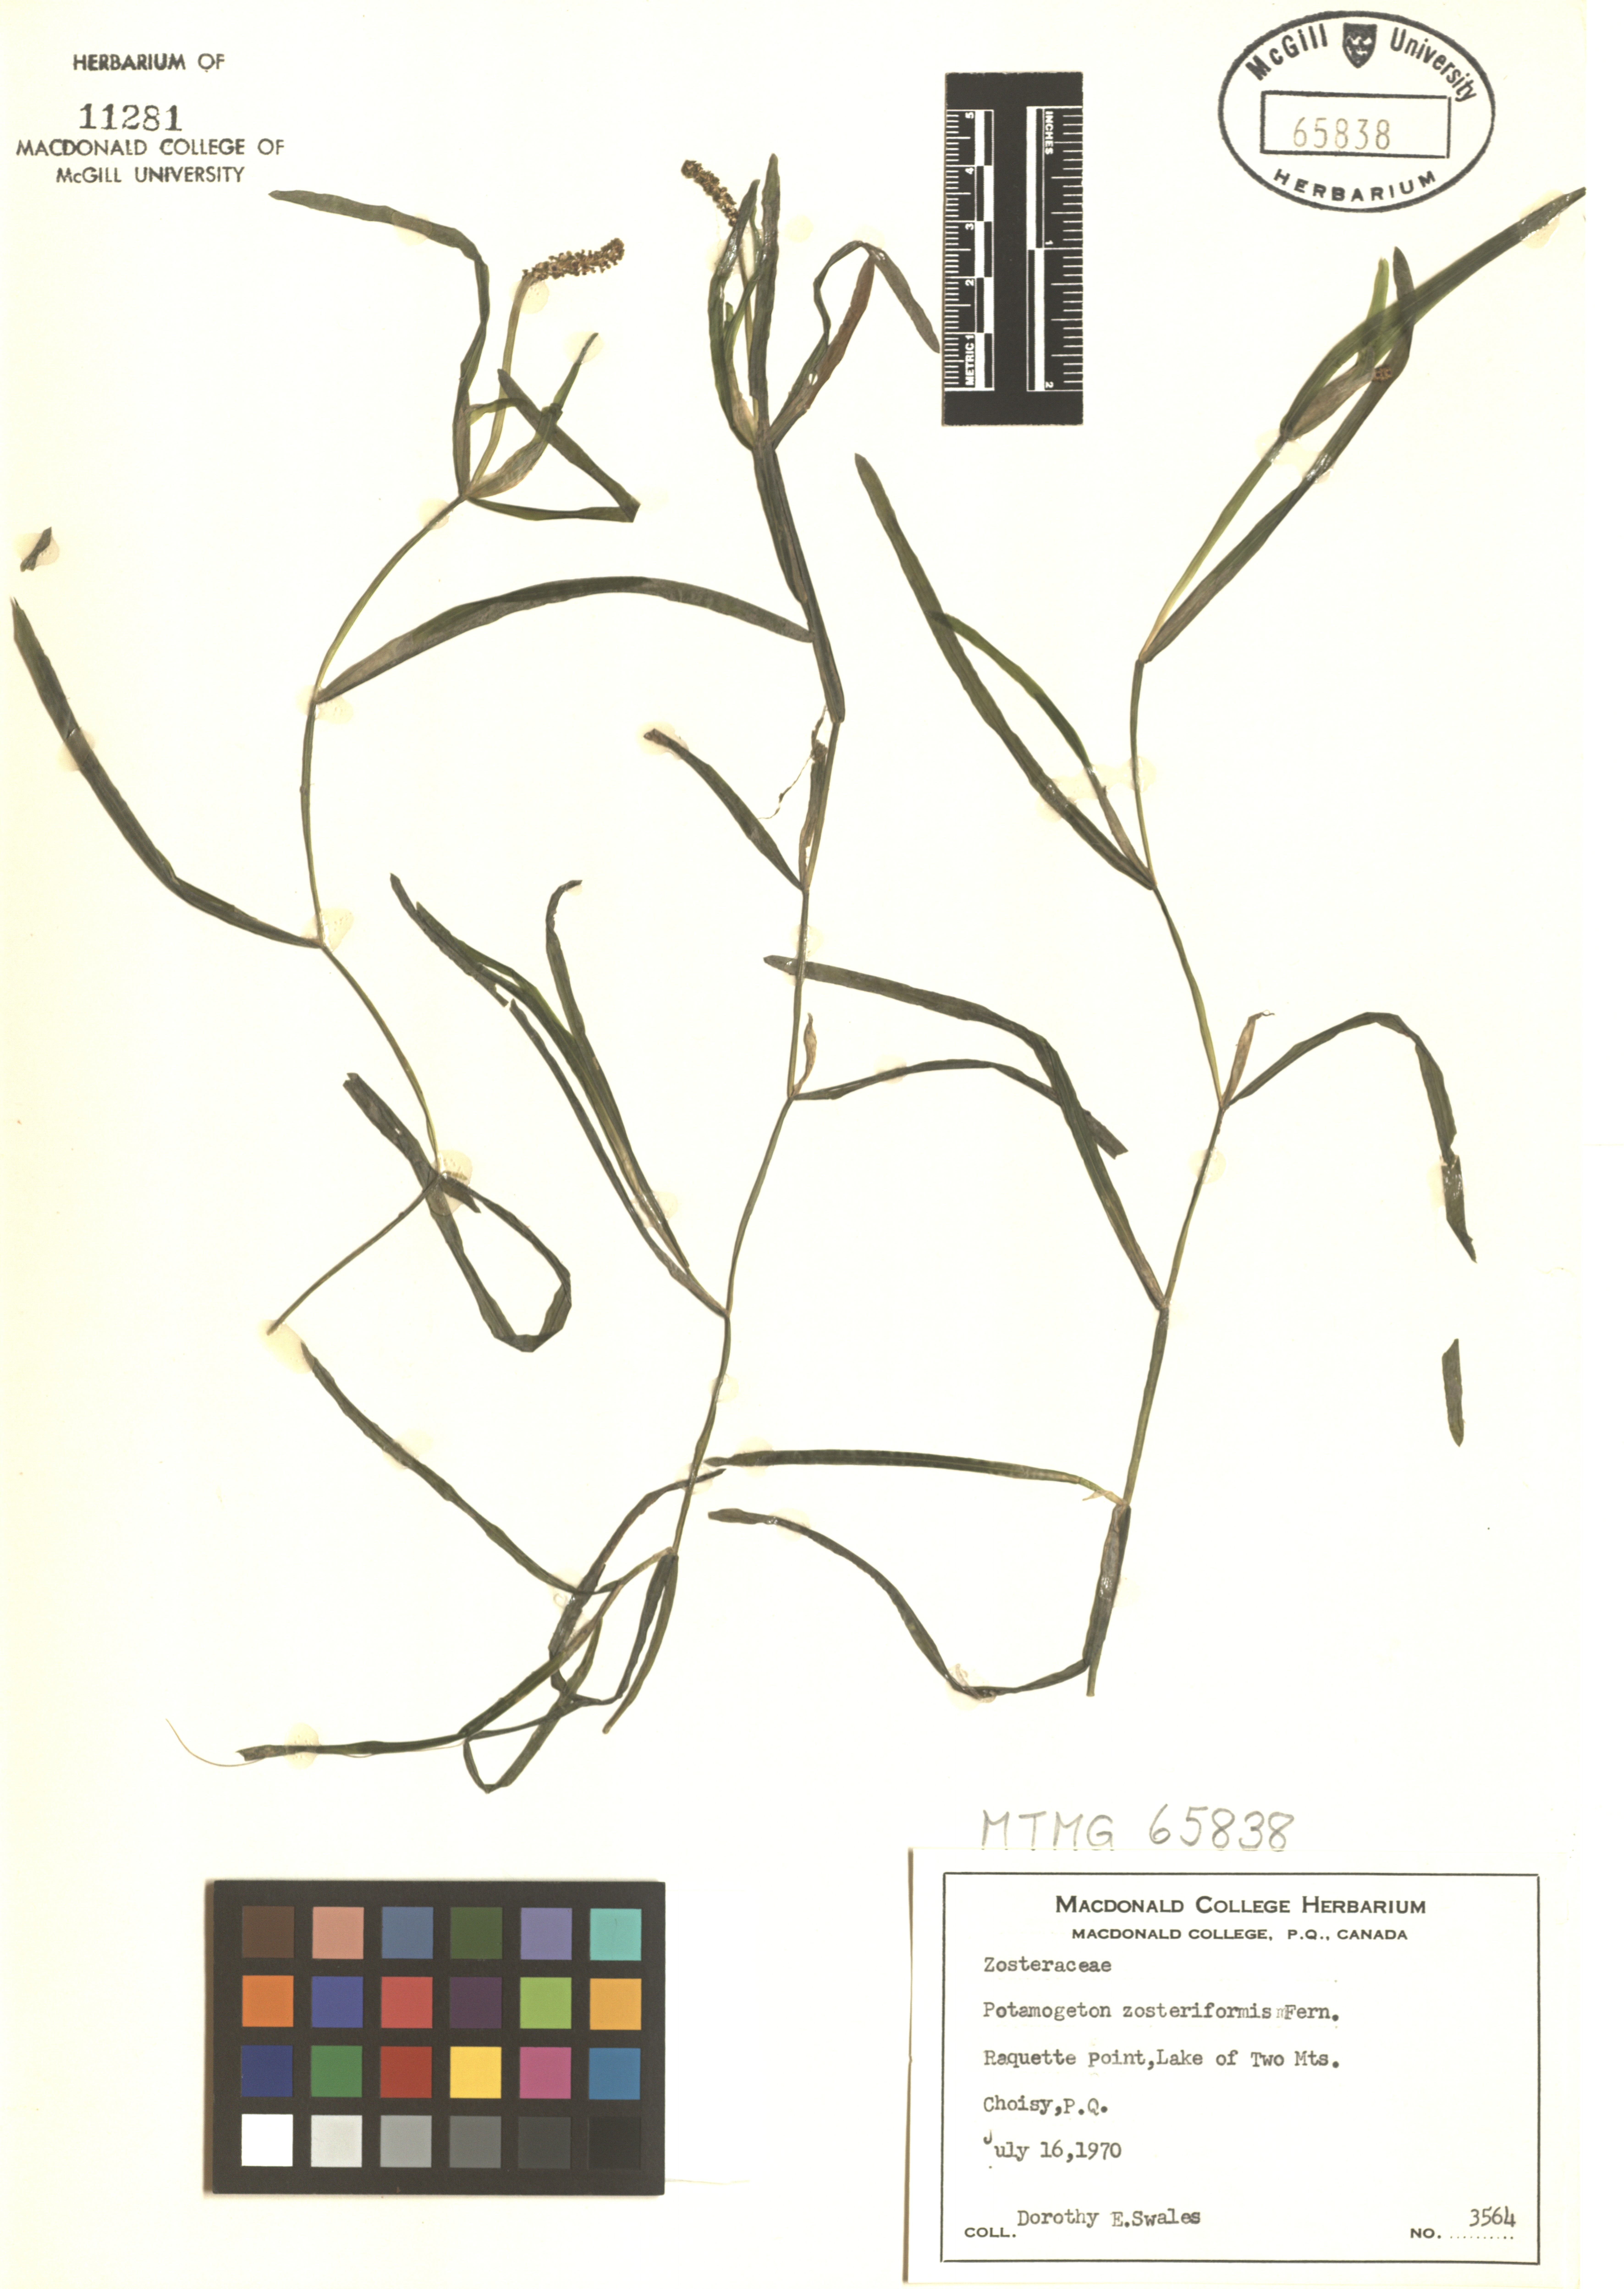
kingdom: Plantae
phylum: Tracheophyta
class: Liliopsida
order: Alismatales
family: Potamogetonaceae
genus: Potamogeton
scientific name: Potamogeton zosteriformis
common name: Eelgrass pondweed
